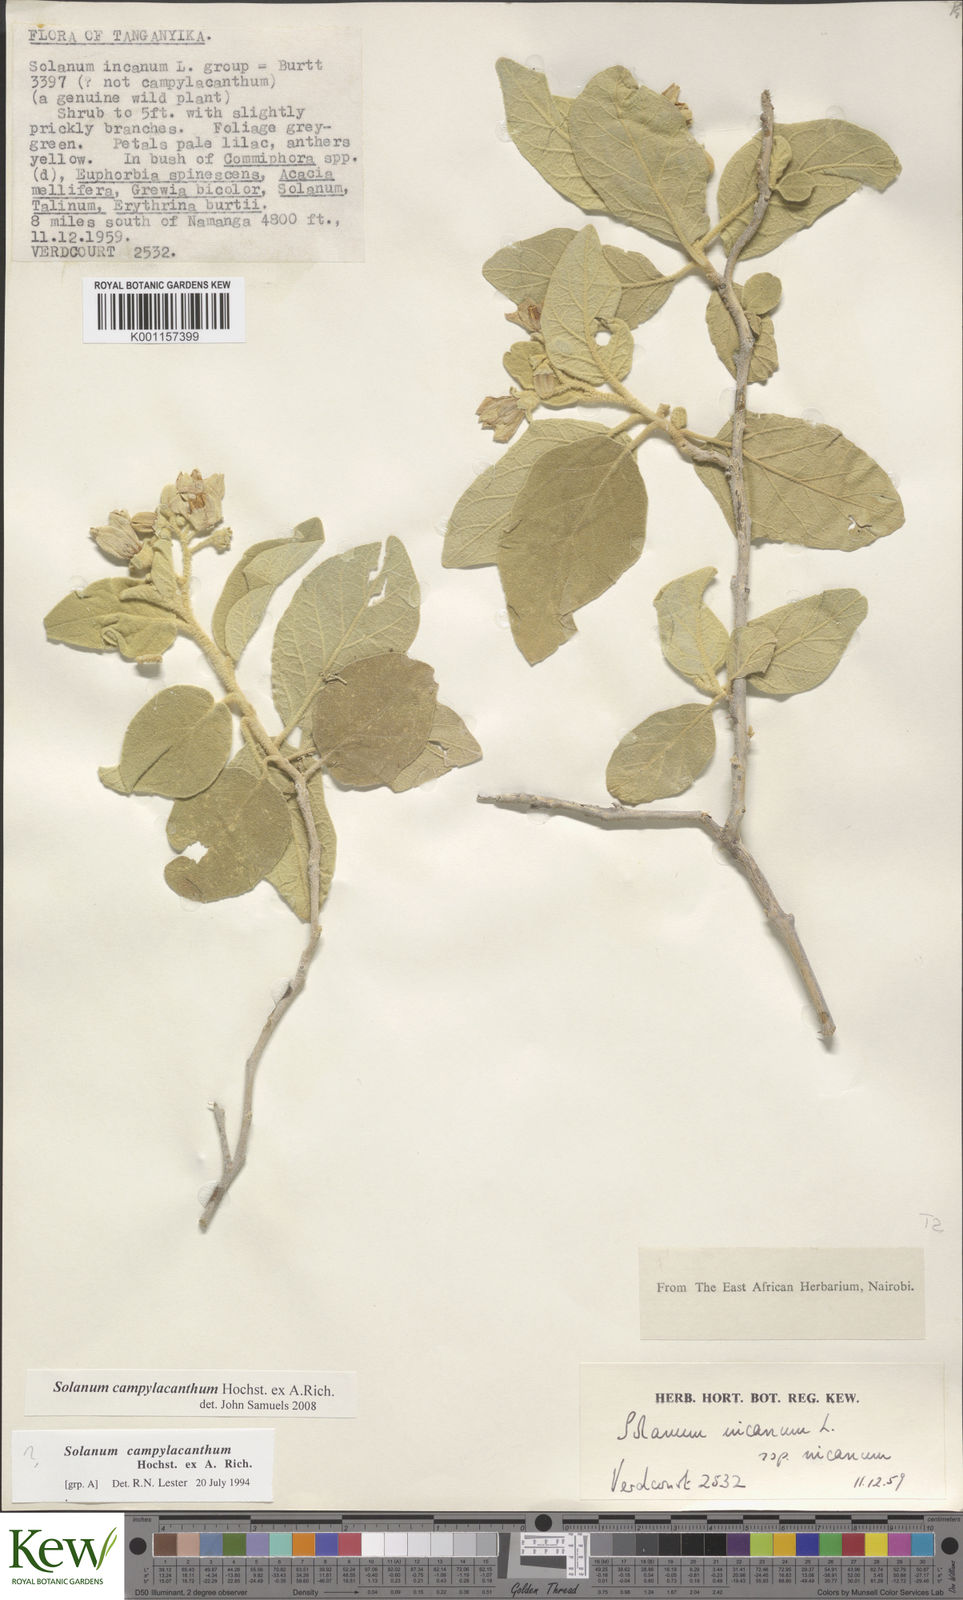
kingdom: Plantae
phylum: Tracheophyta
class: Magnoliopsida
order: Solanales
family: Solanaceae
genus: Solanum
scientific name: Solanum campylacanthum
